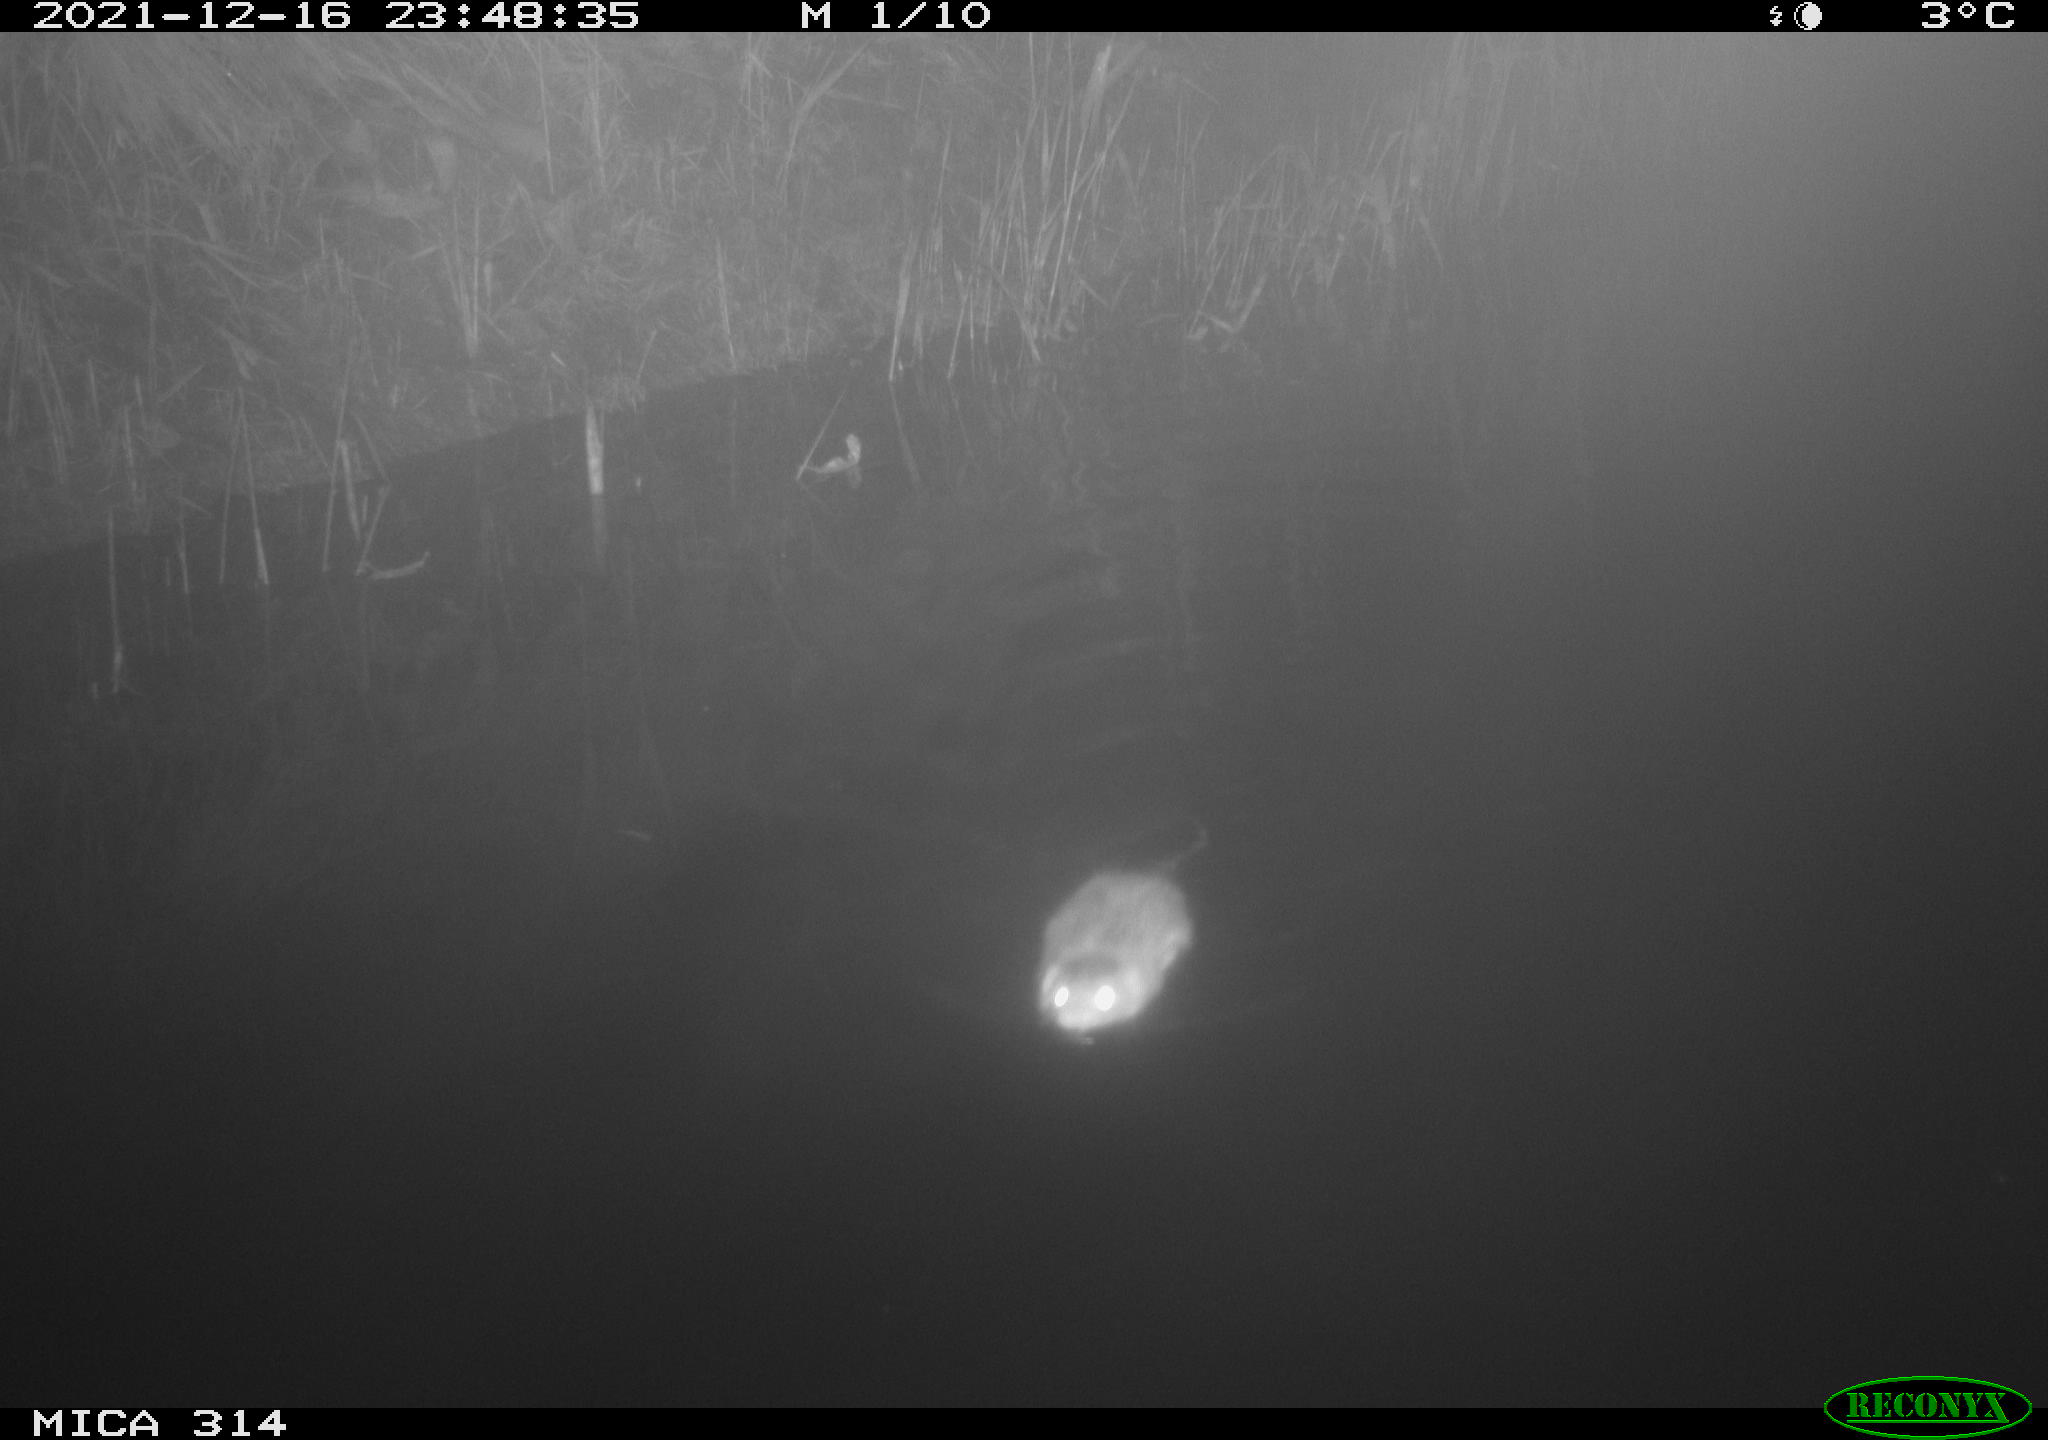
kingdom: Animalia
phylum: Chordata
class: Mammalia
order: Rodentia
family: Cricetidae
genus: Ondatra
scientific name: Ondatra zibethicus
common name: Muskrat
